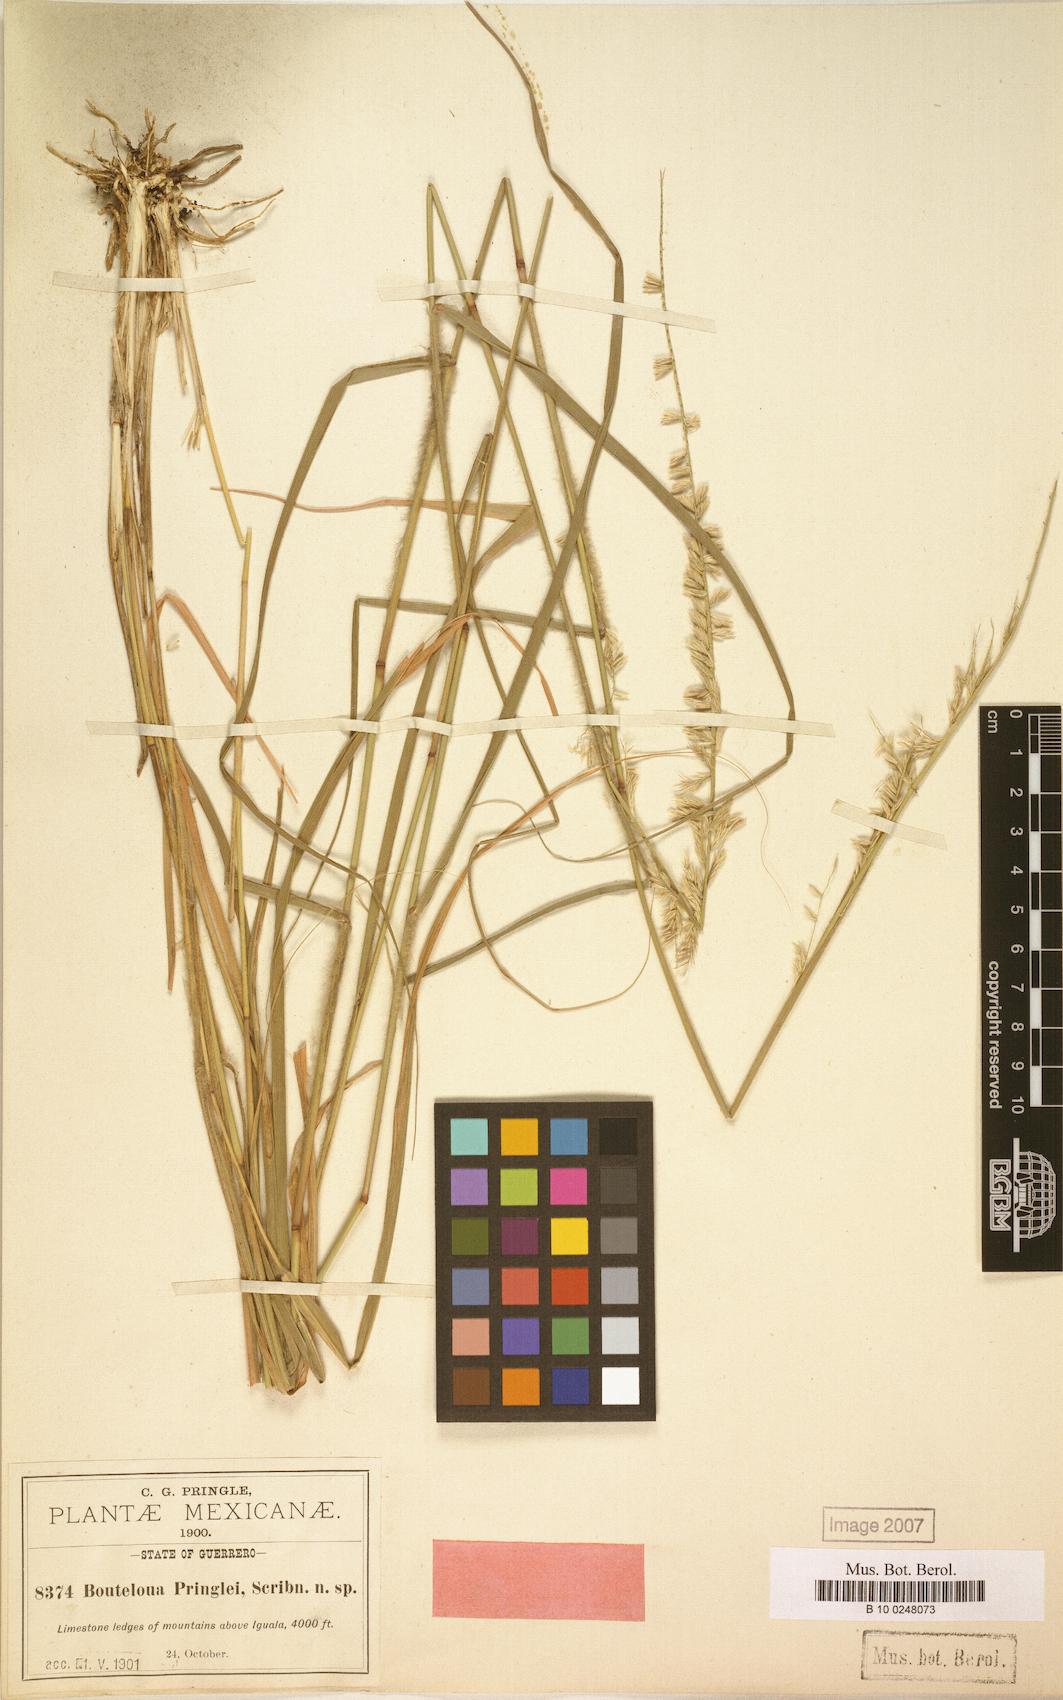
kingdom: Plantae
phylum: Tracheophyta
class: Liliopsida
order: Poales
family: Poaceae
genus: Bouteloua
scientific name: Bouteloua media
